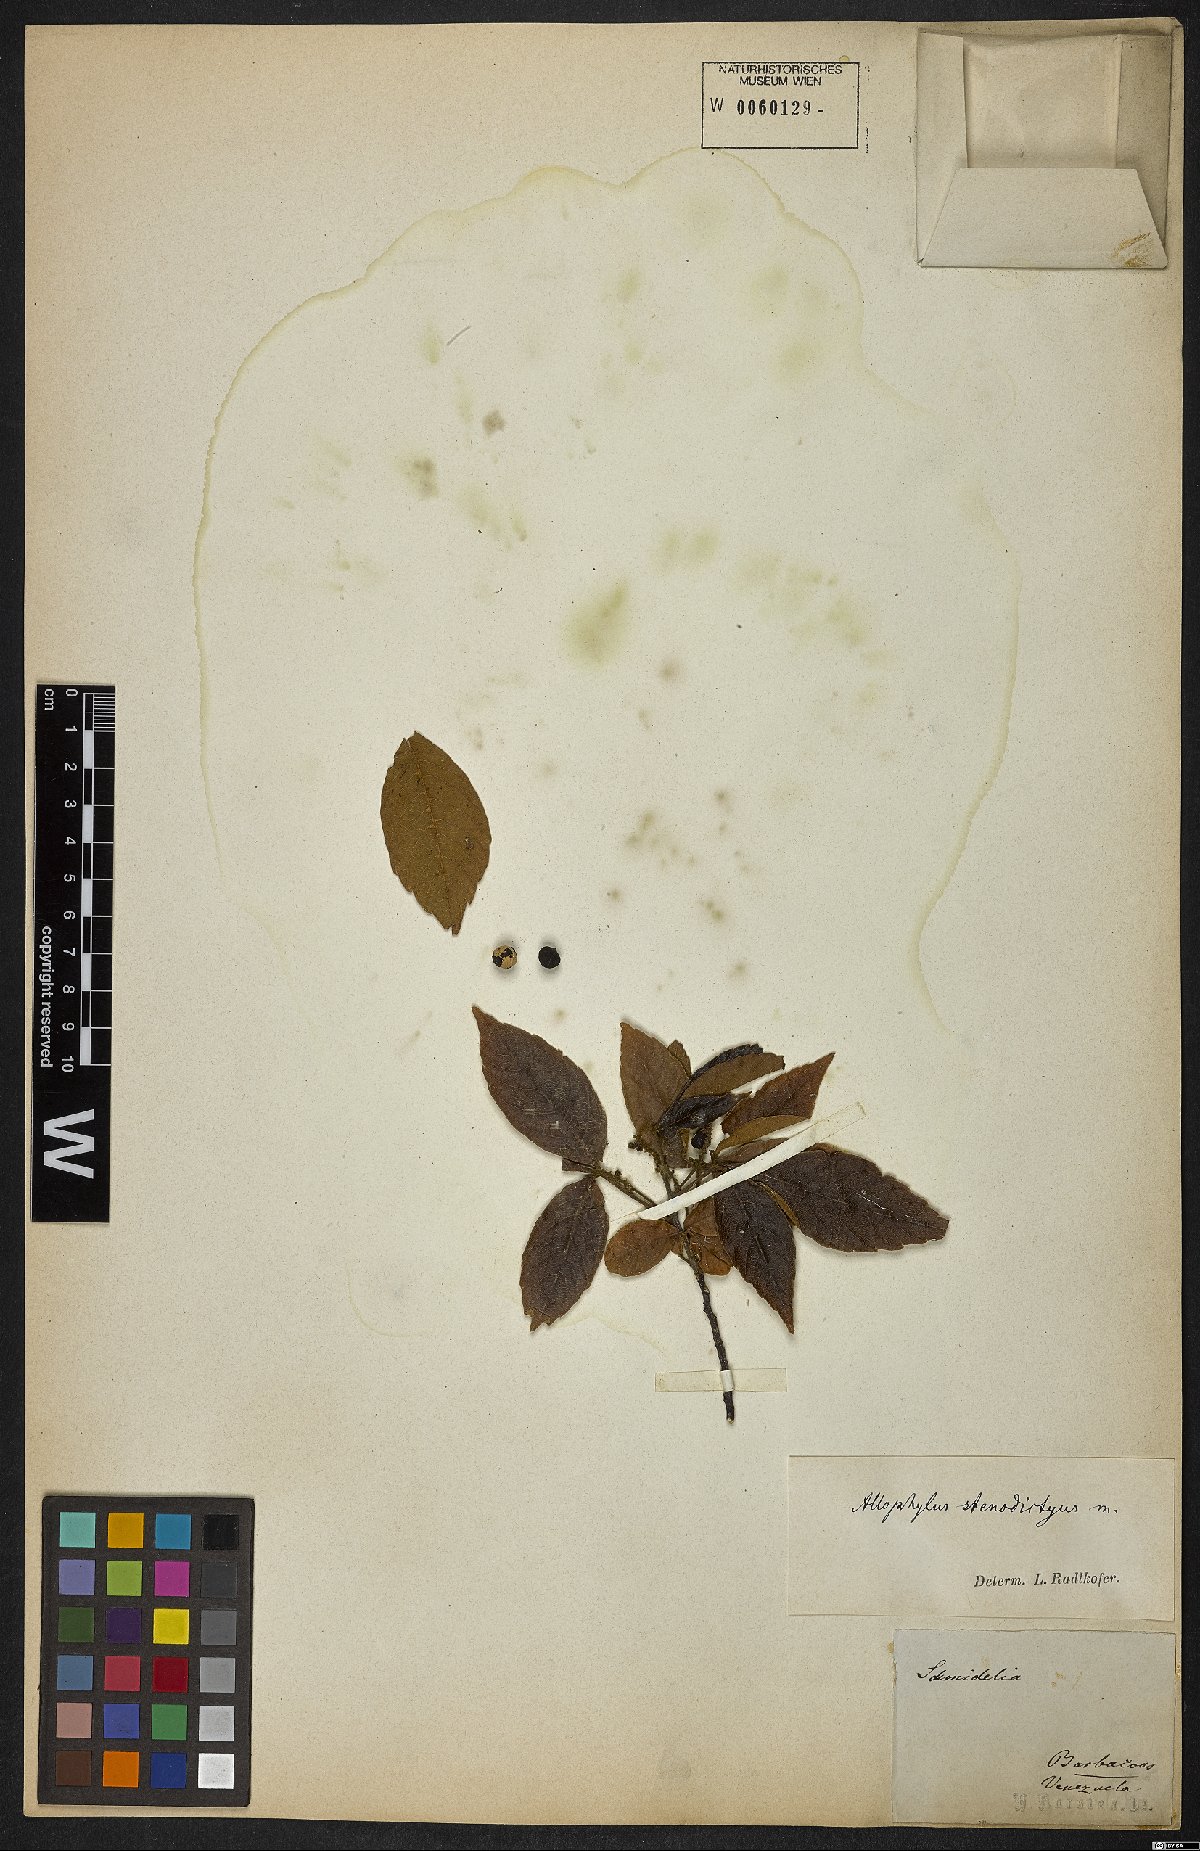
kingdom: Plantae
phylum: Tracheophyta
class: Magnoliopsida
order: Sapindales
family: Sapindaceae
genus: Allophylus
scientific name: Allophylus
